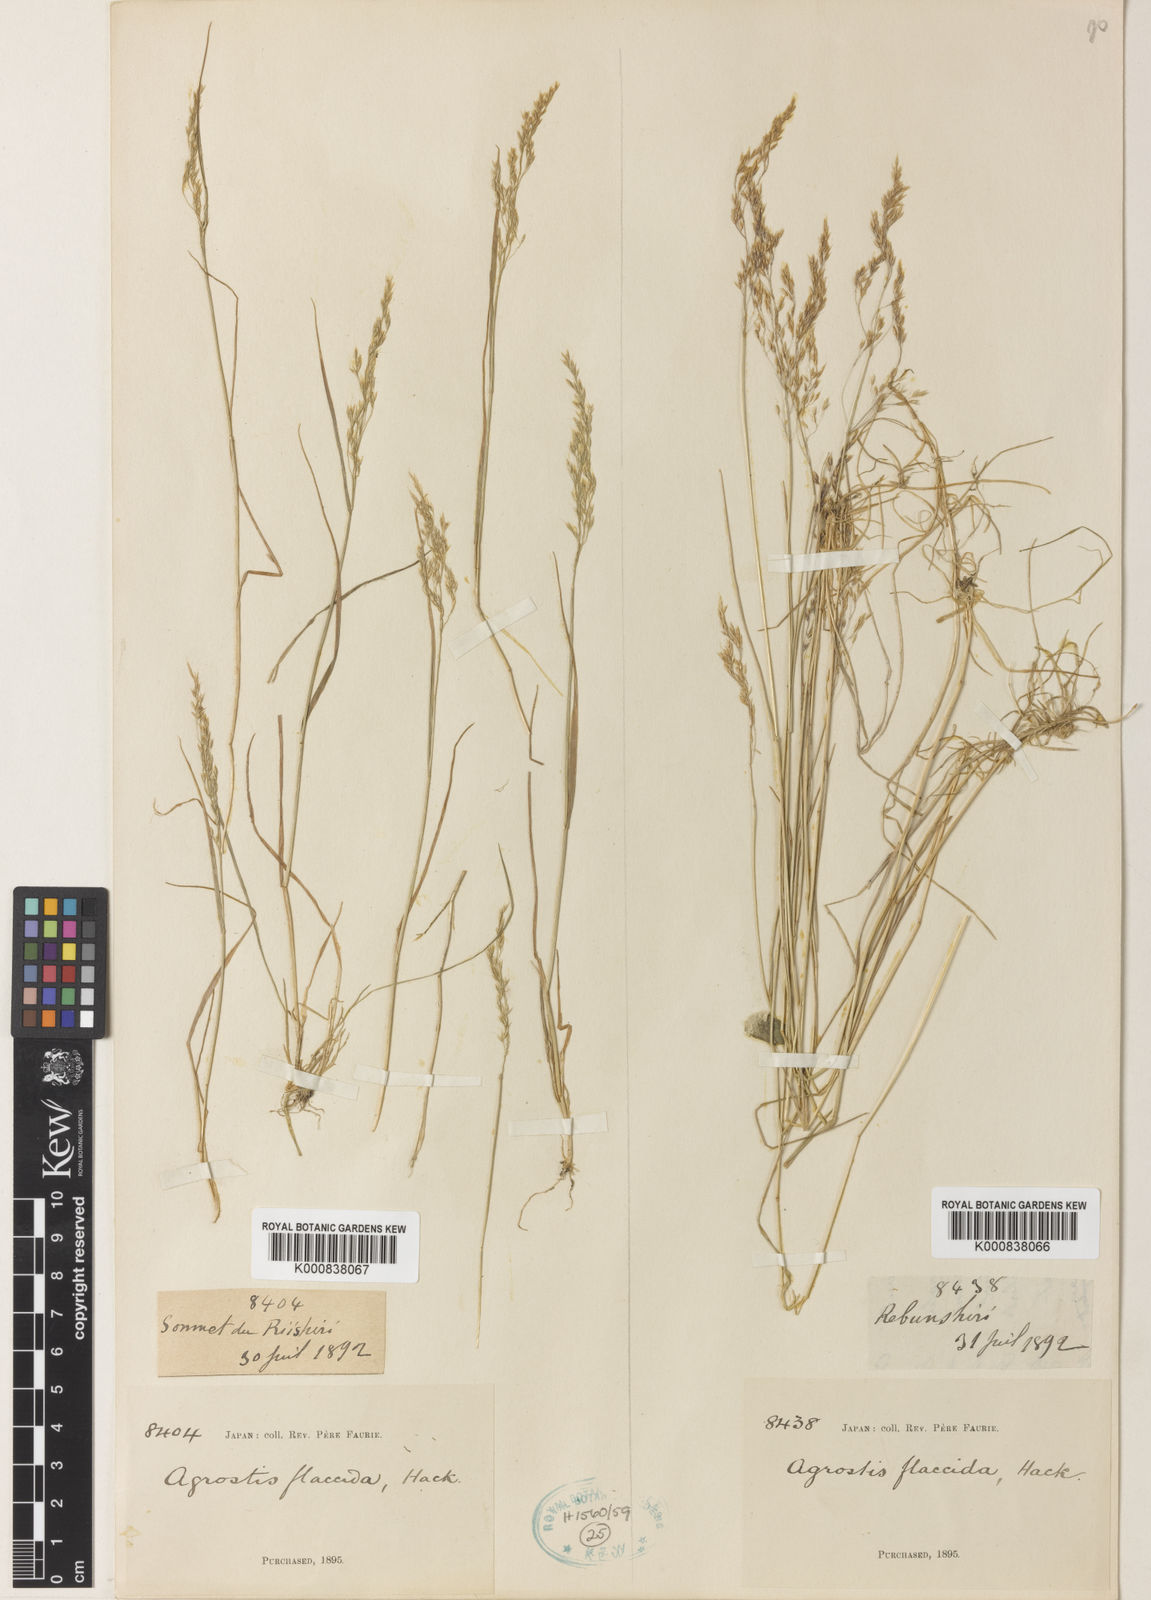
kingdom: Plantae
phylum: Tracheophyta
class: Liliopsida
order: Poales
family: Poaceae
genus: Agrostis
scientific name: Agrostis flaccida
